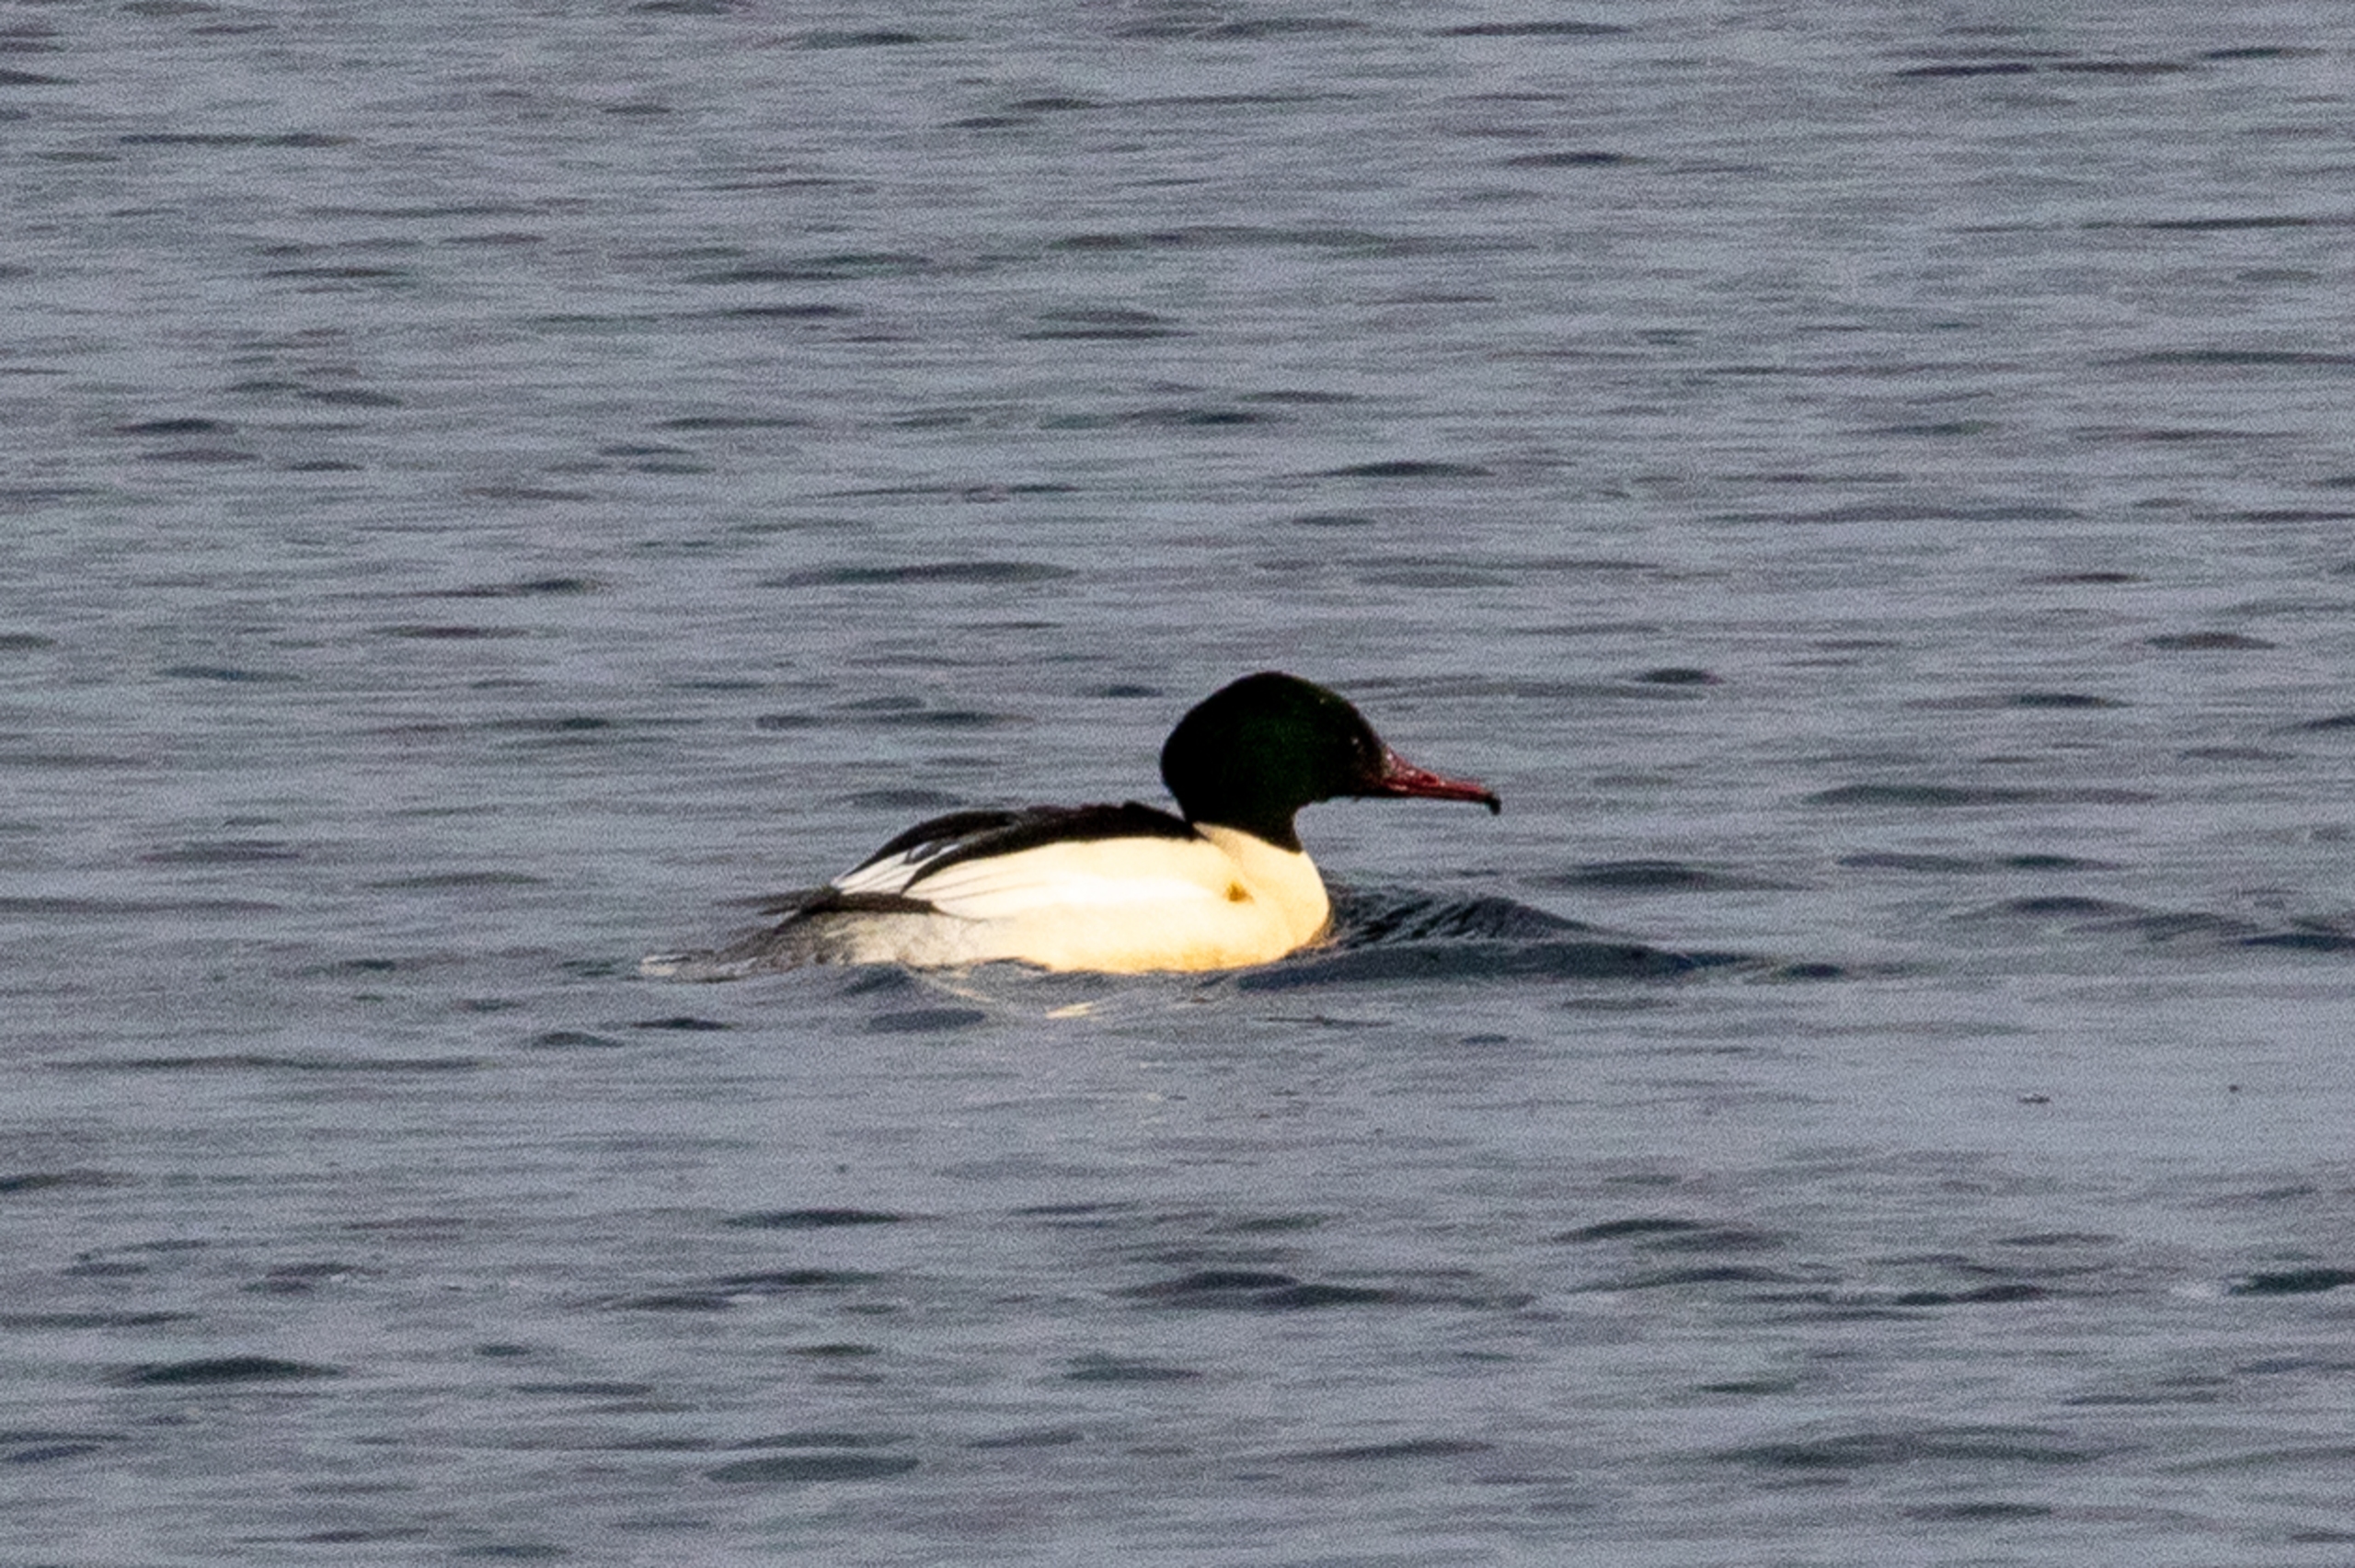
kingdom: Animalia
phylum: Chordata
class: Aves
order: Anseriformes
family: Anatidae
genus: Mergus
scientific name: Mergus merganser
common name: Stor skallesluger
